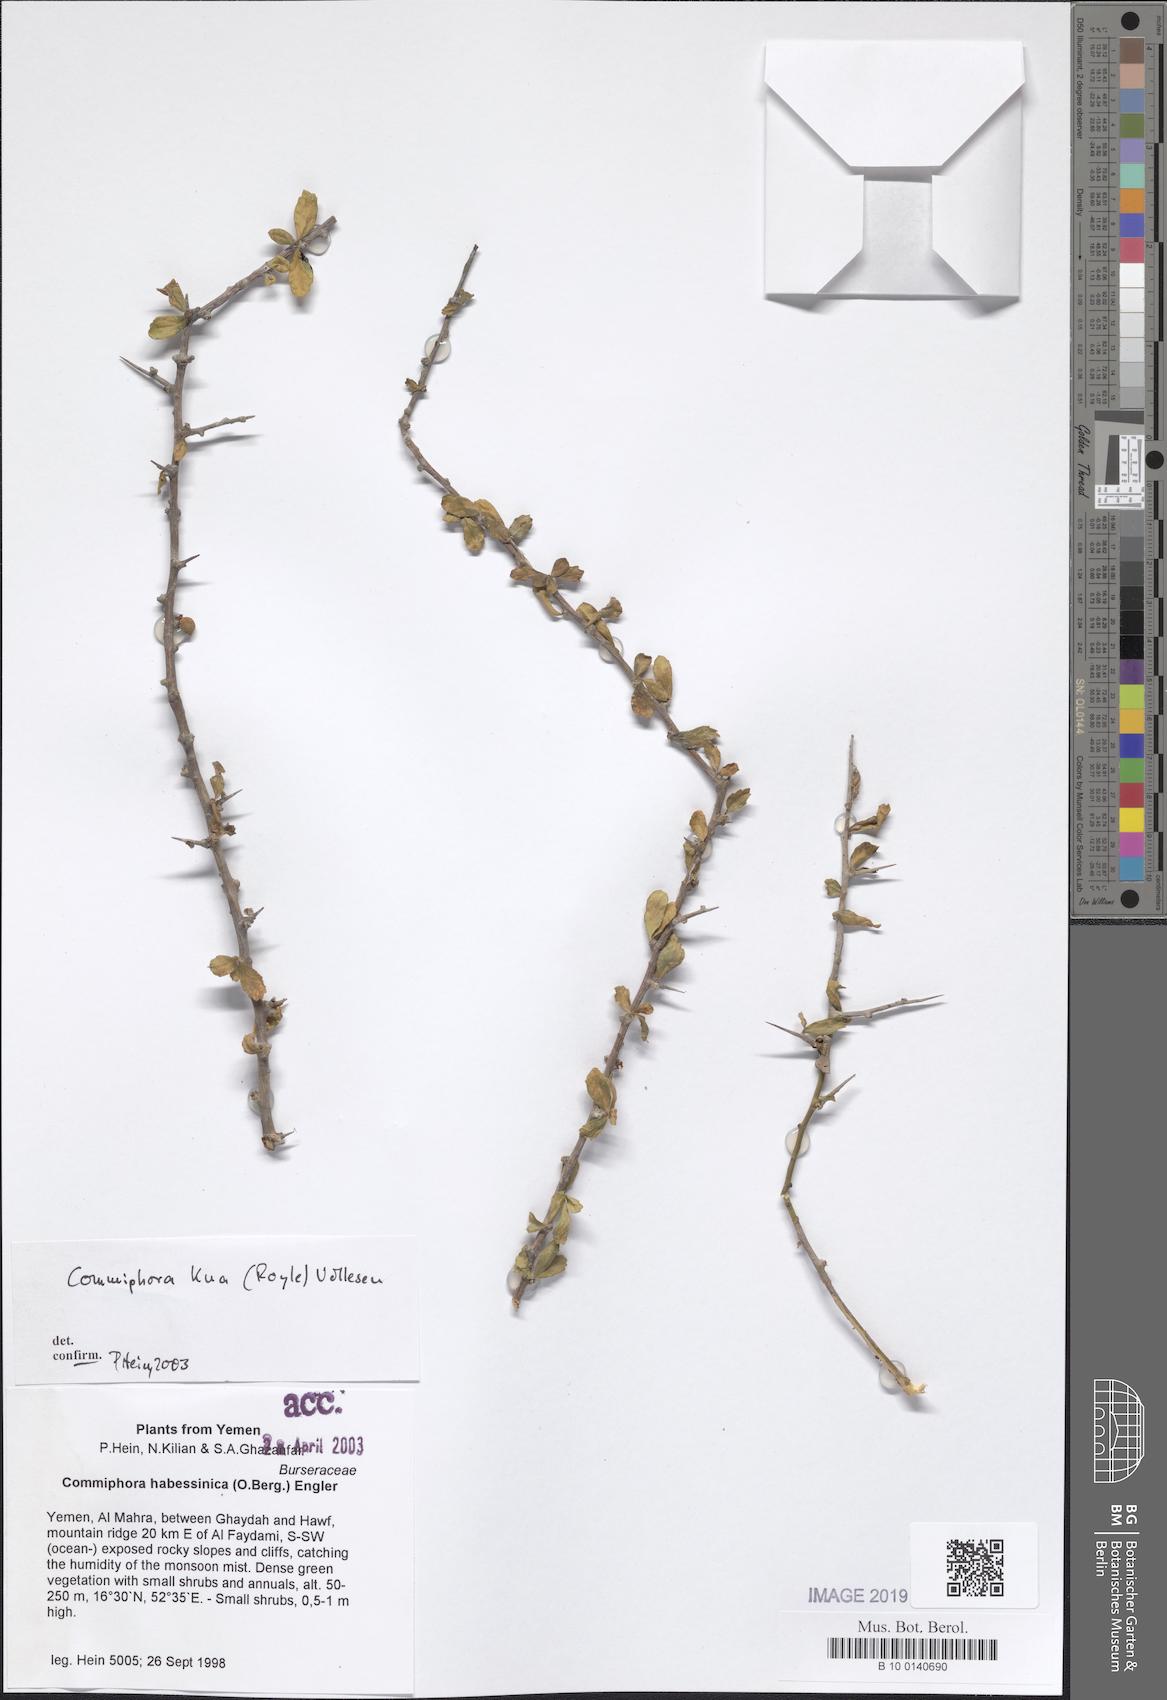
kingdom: Plantae
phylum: Tracheophyta
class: Magnoliopsida
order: Sapindales
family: Burseraceae
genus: Commiphora
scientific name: Commiphora kua
